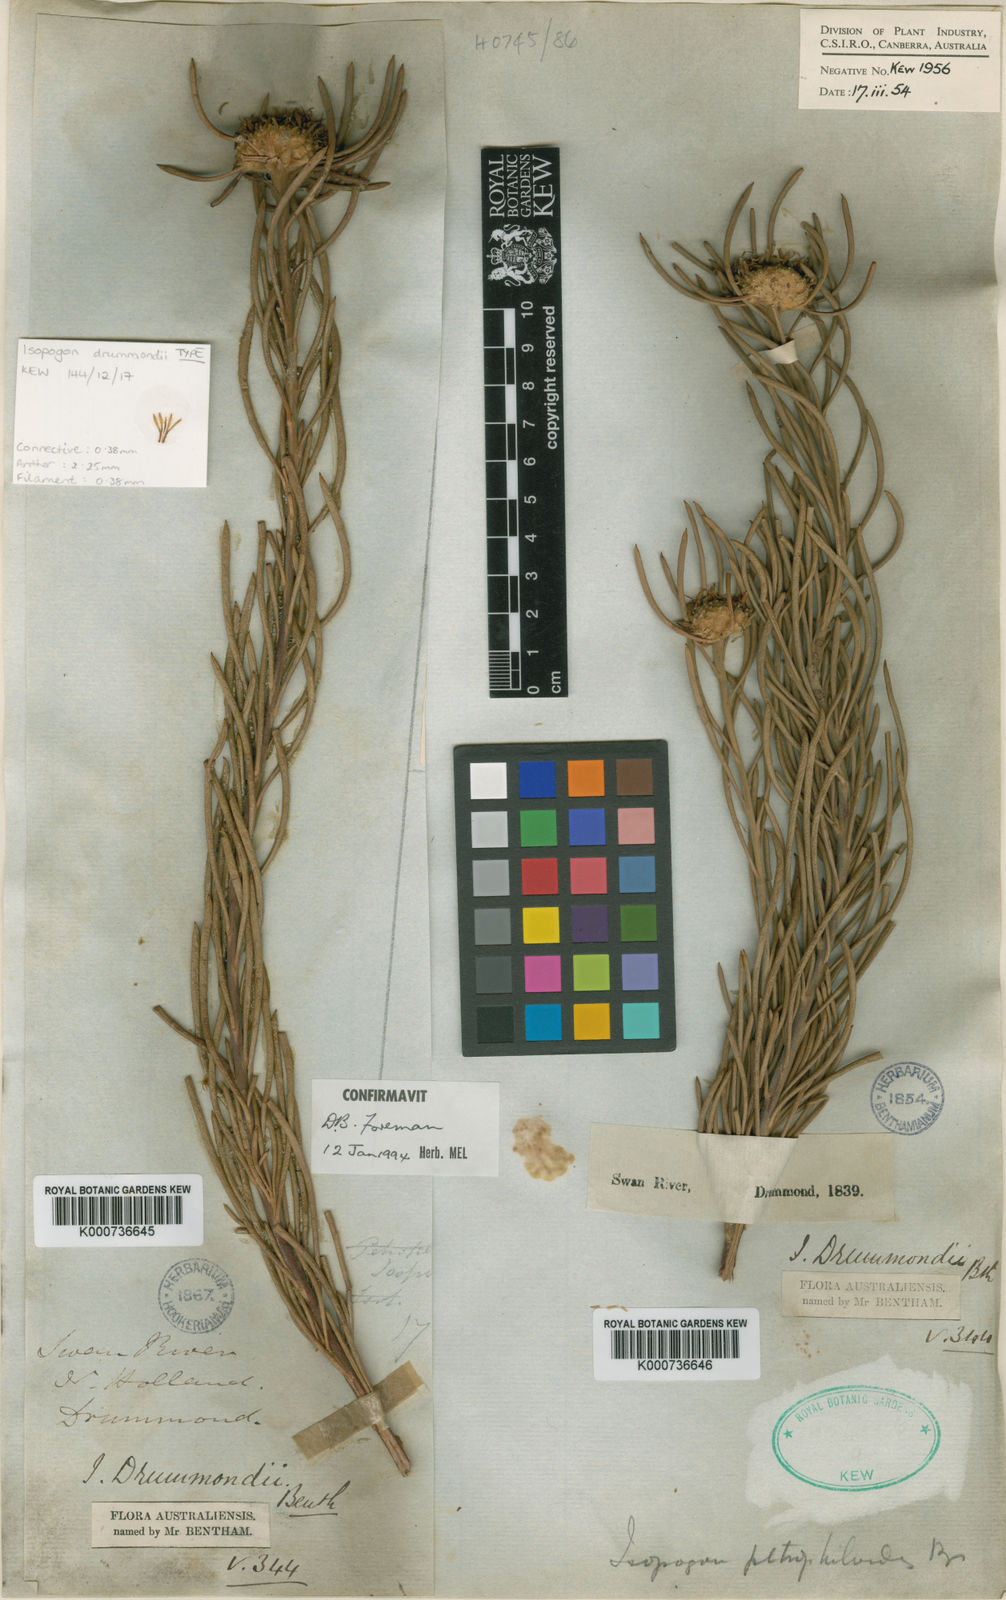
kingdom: Plantae
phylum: Tracheophyta
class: Magnoliopsida
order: Proteales
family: Proteaceae
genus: Isopogon
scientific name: Isopogon autumnalis
